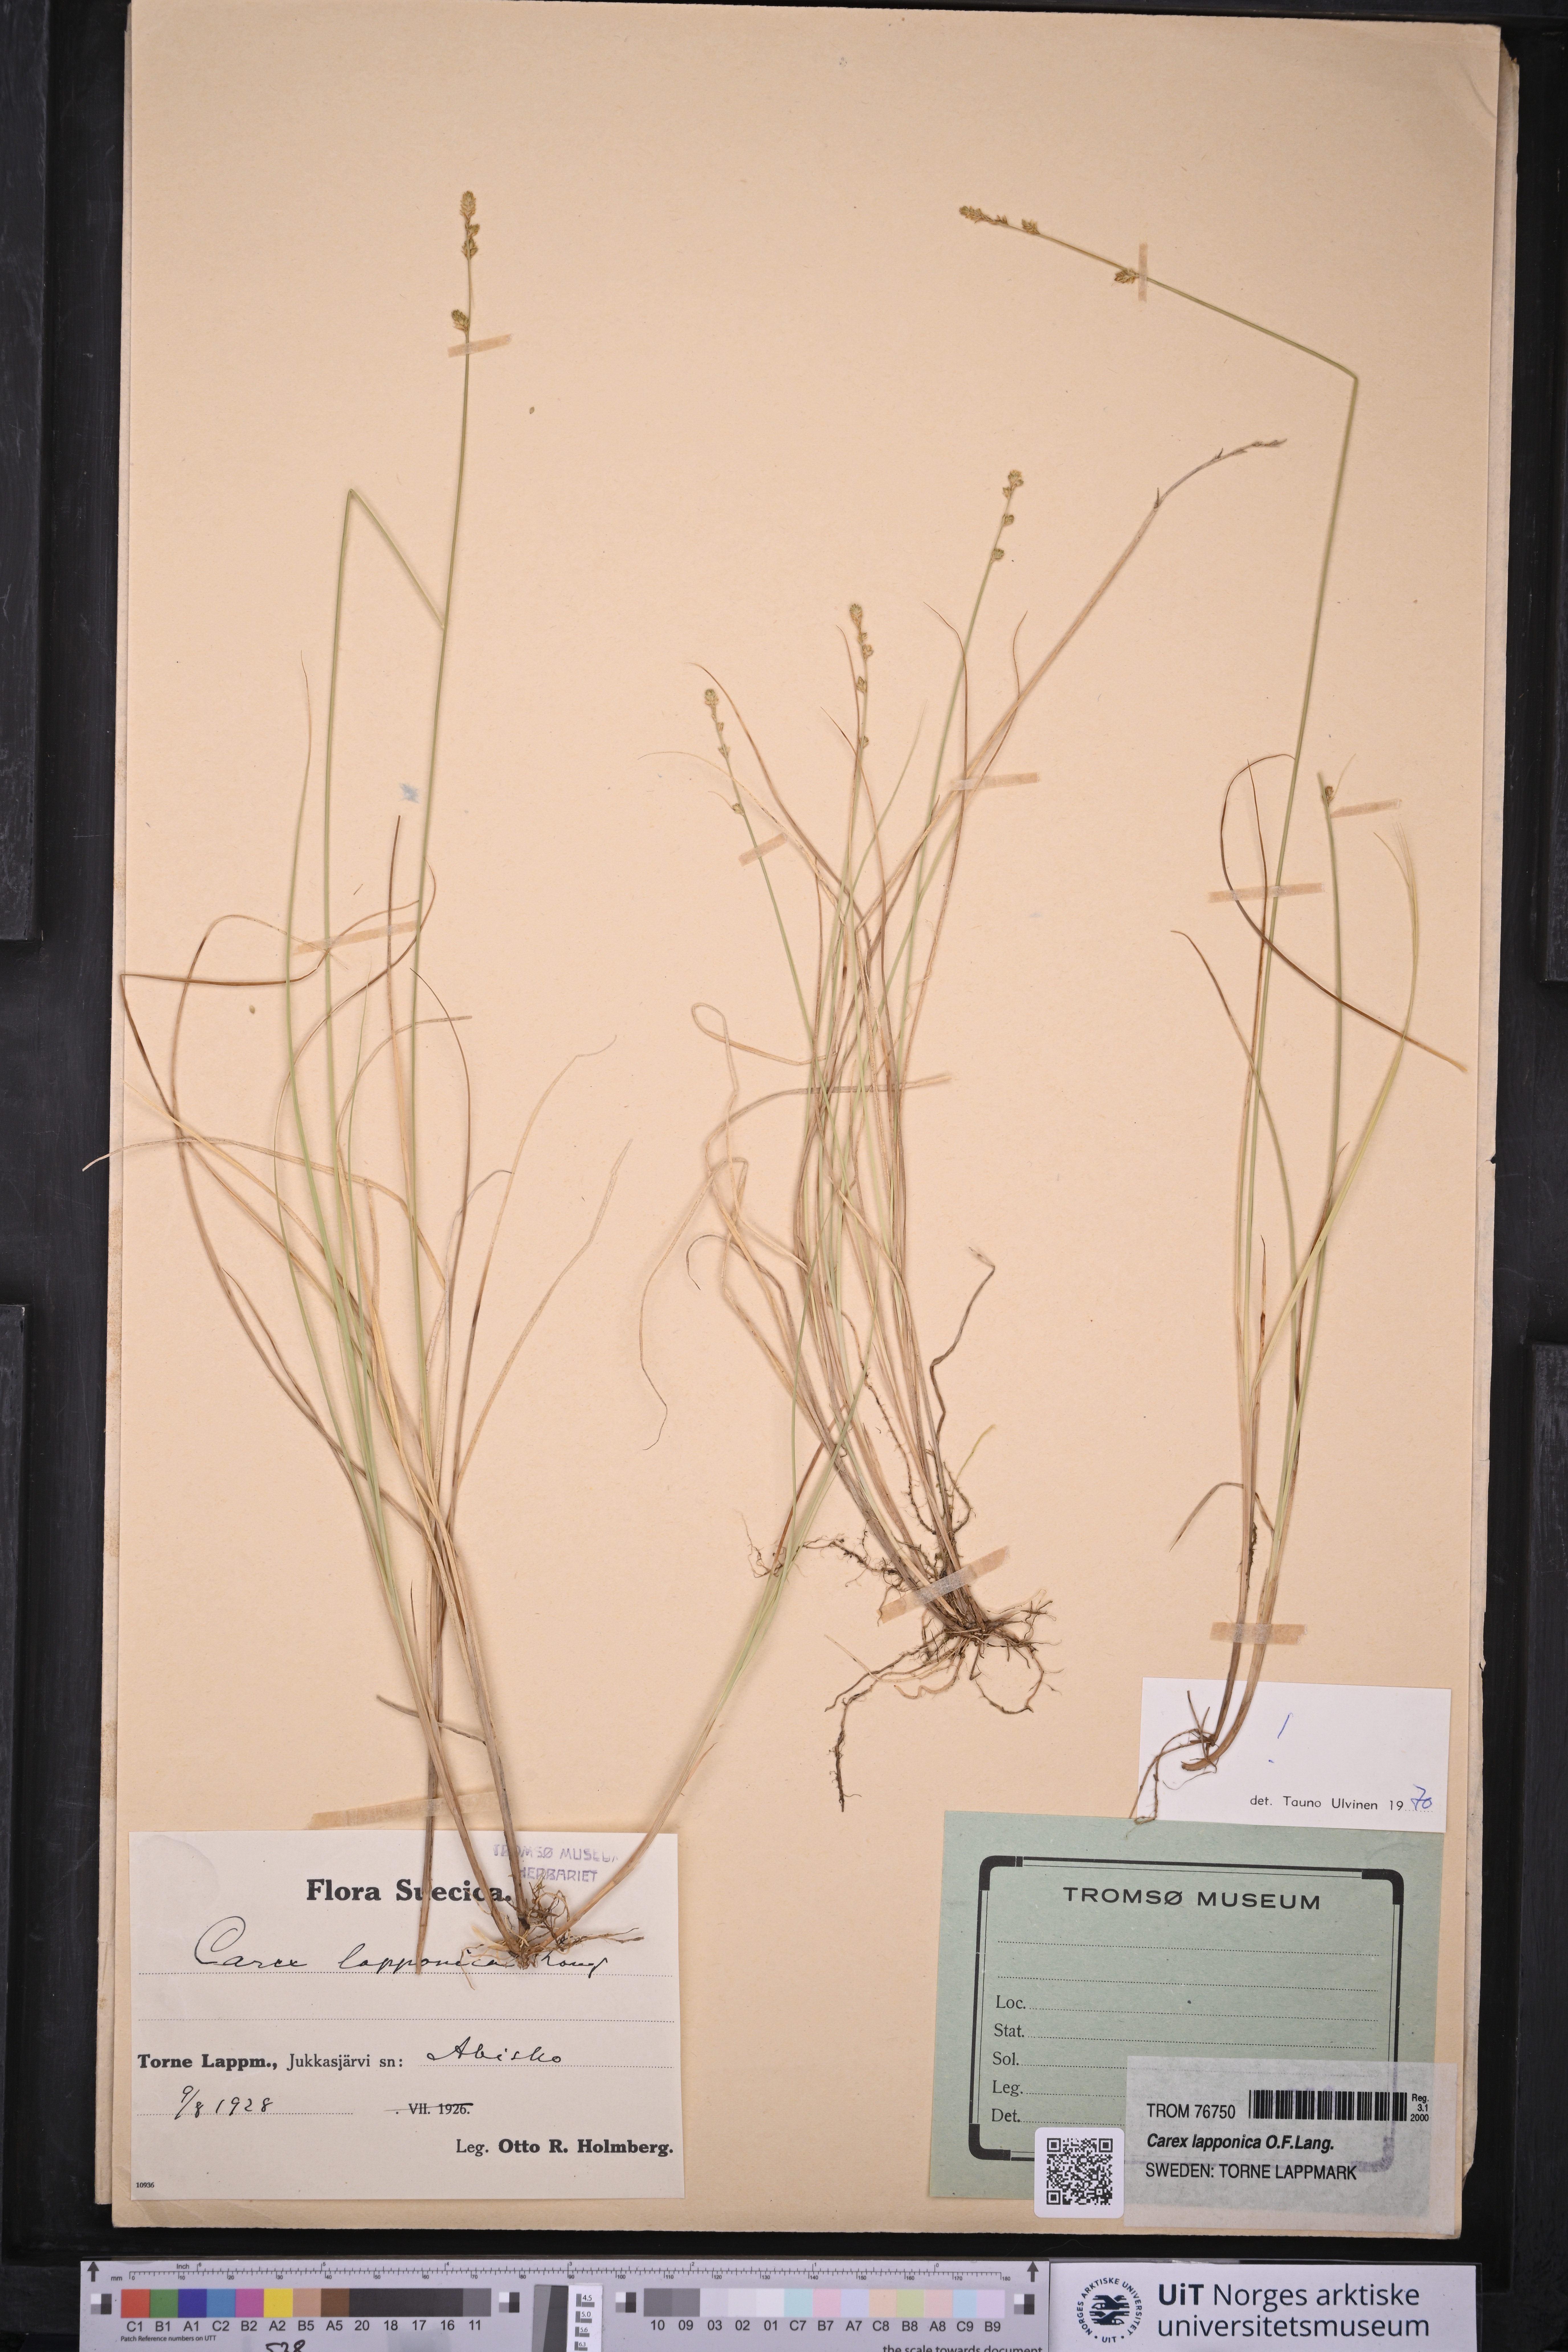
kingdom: Plantae
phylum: Tracheophyta
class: Liliopsida
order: Poales
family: Cyperaceae
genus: Carex
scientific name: Carex lapponica
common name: Lapland sedge
